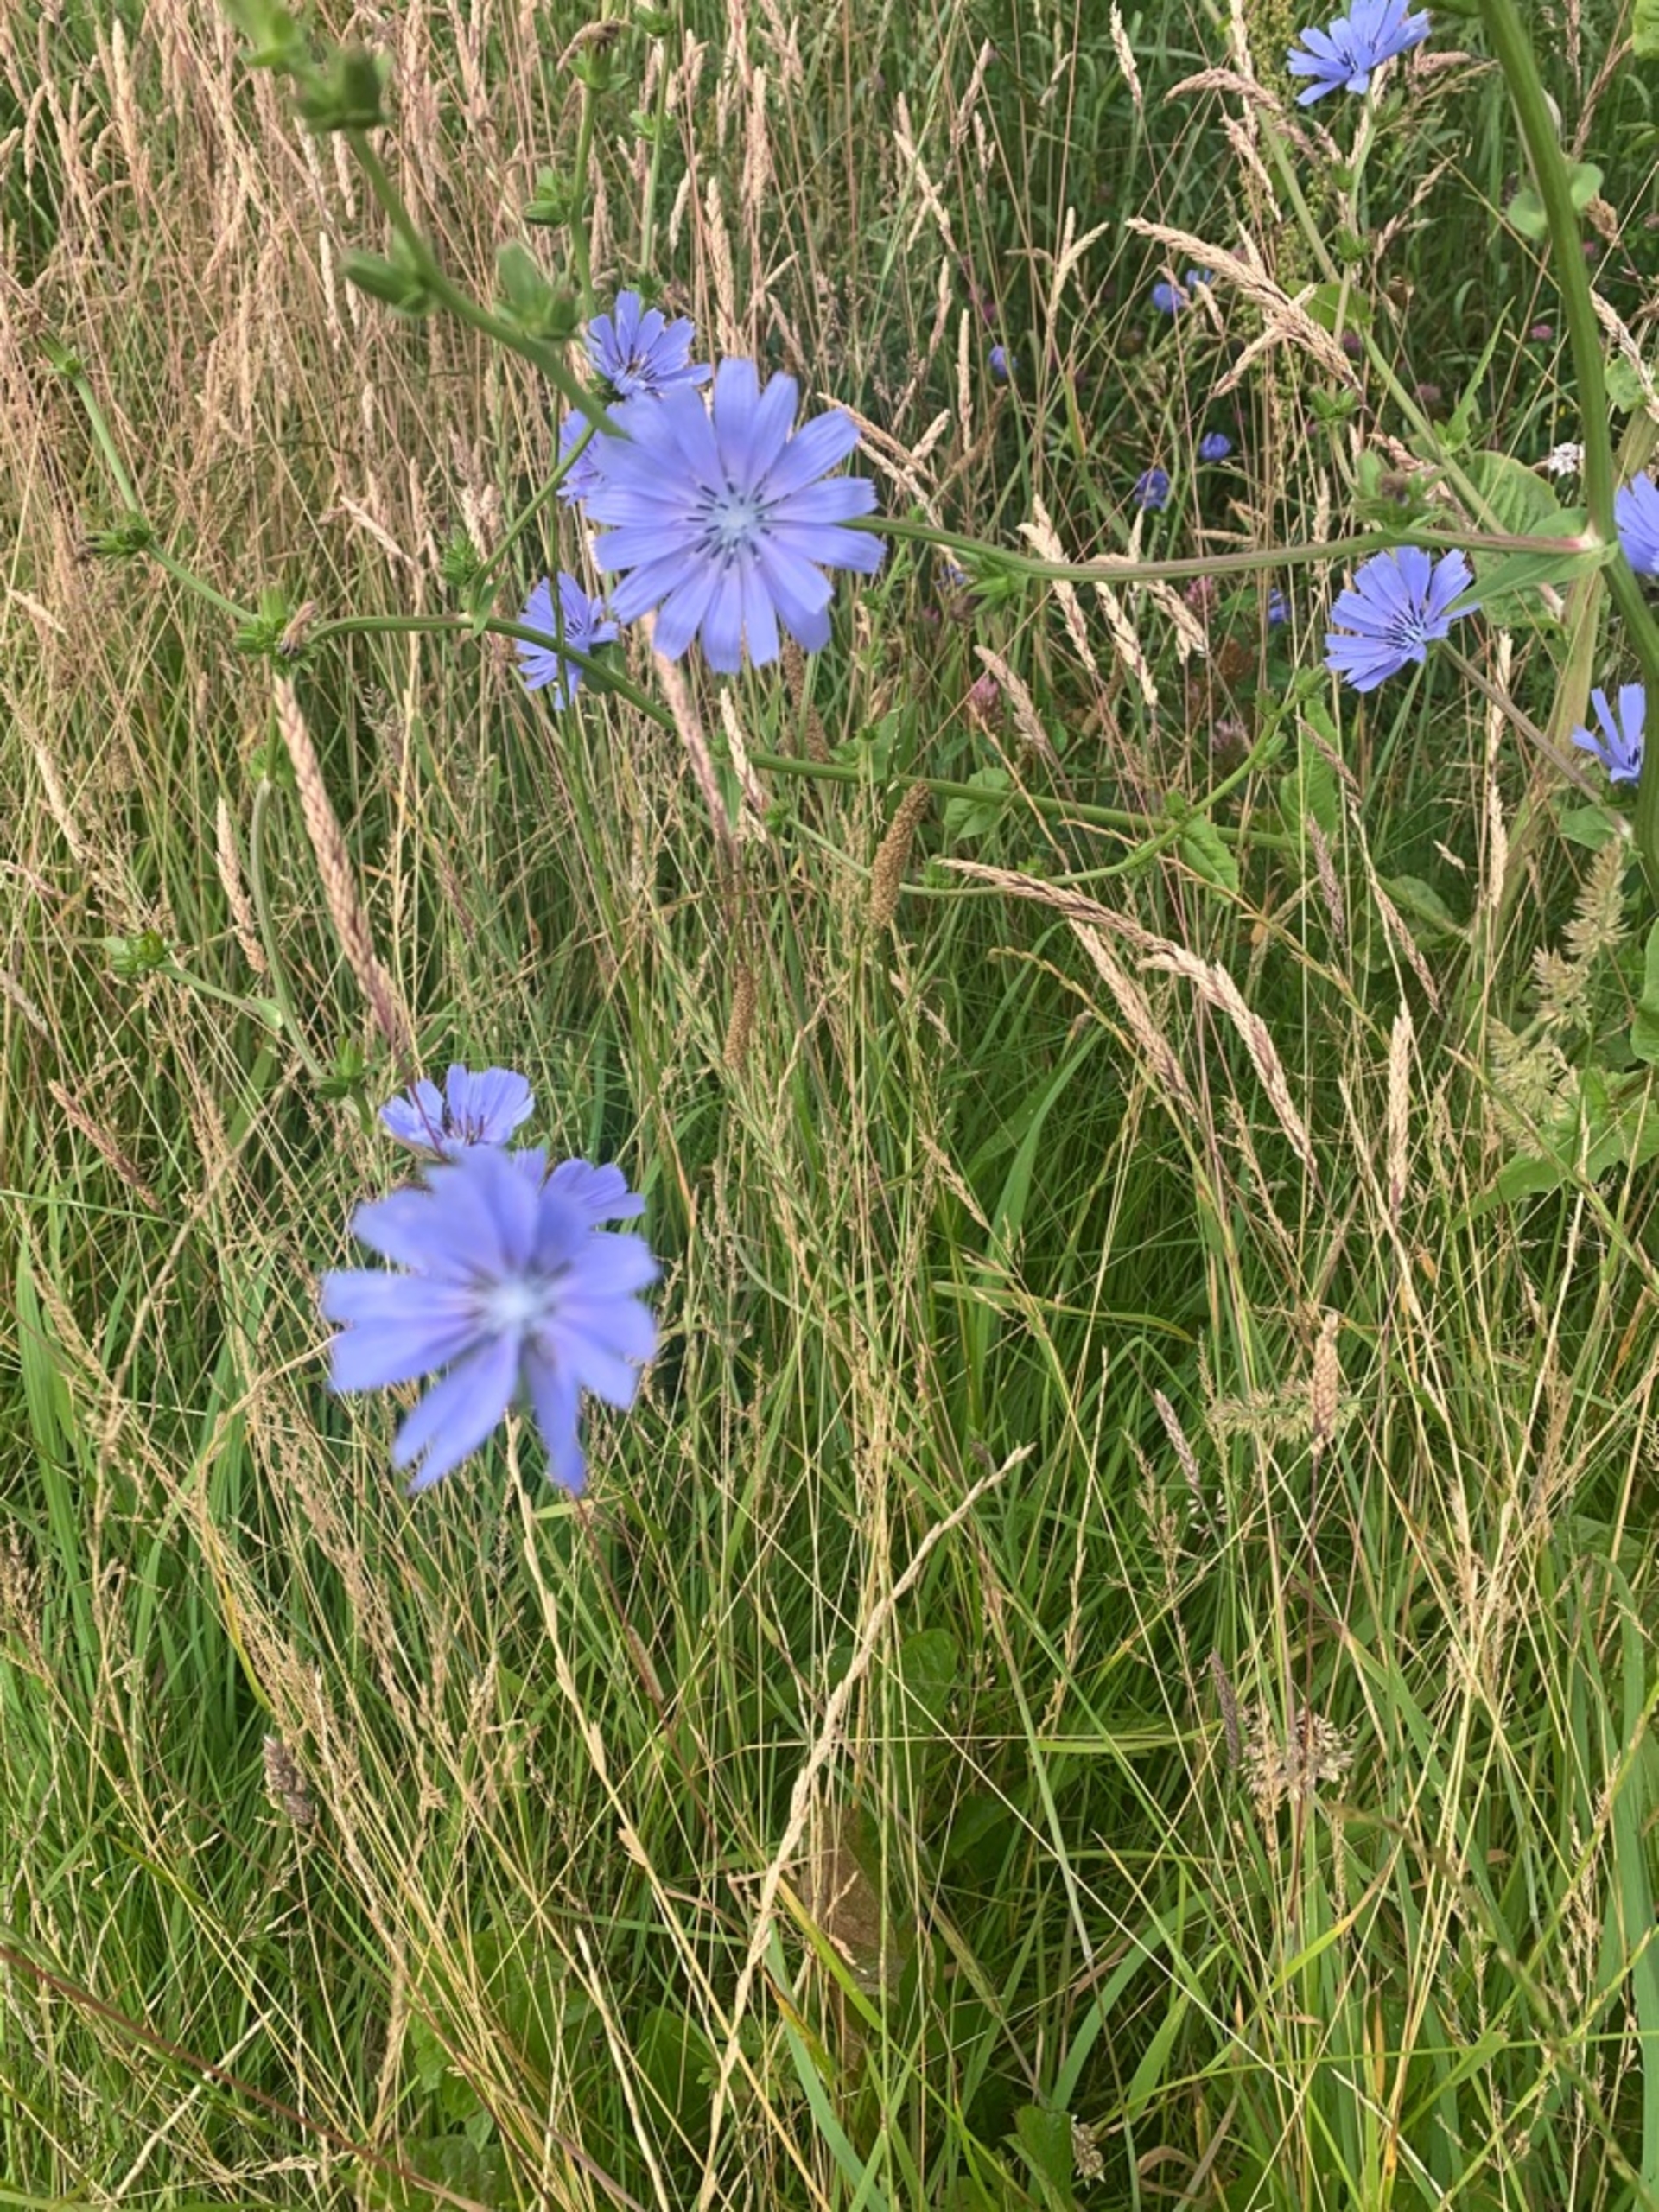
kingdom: Plantae
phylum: Tracheophyta
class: Magnoliopsida
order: Asterales
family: Asteraceae
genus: Cichorium
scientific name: Cichorium intybus
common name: Cikorie
